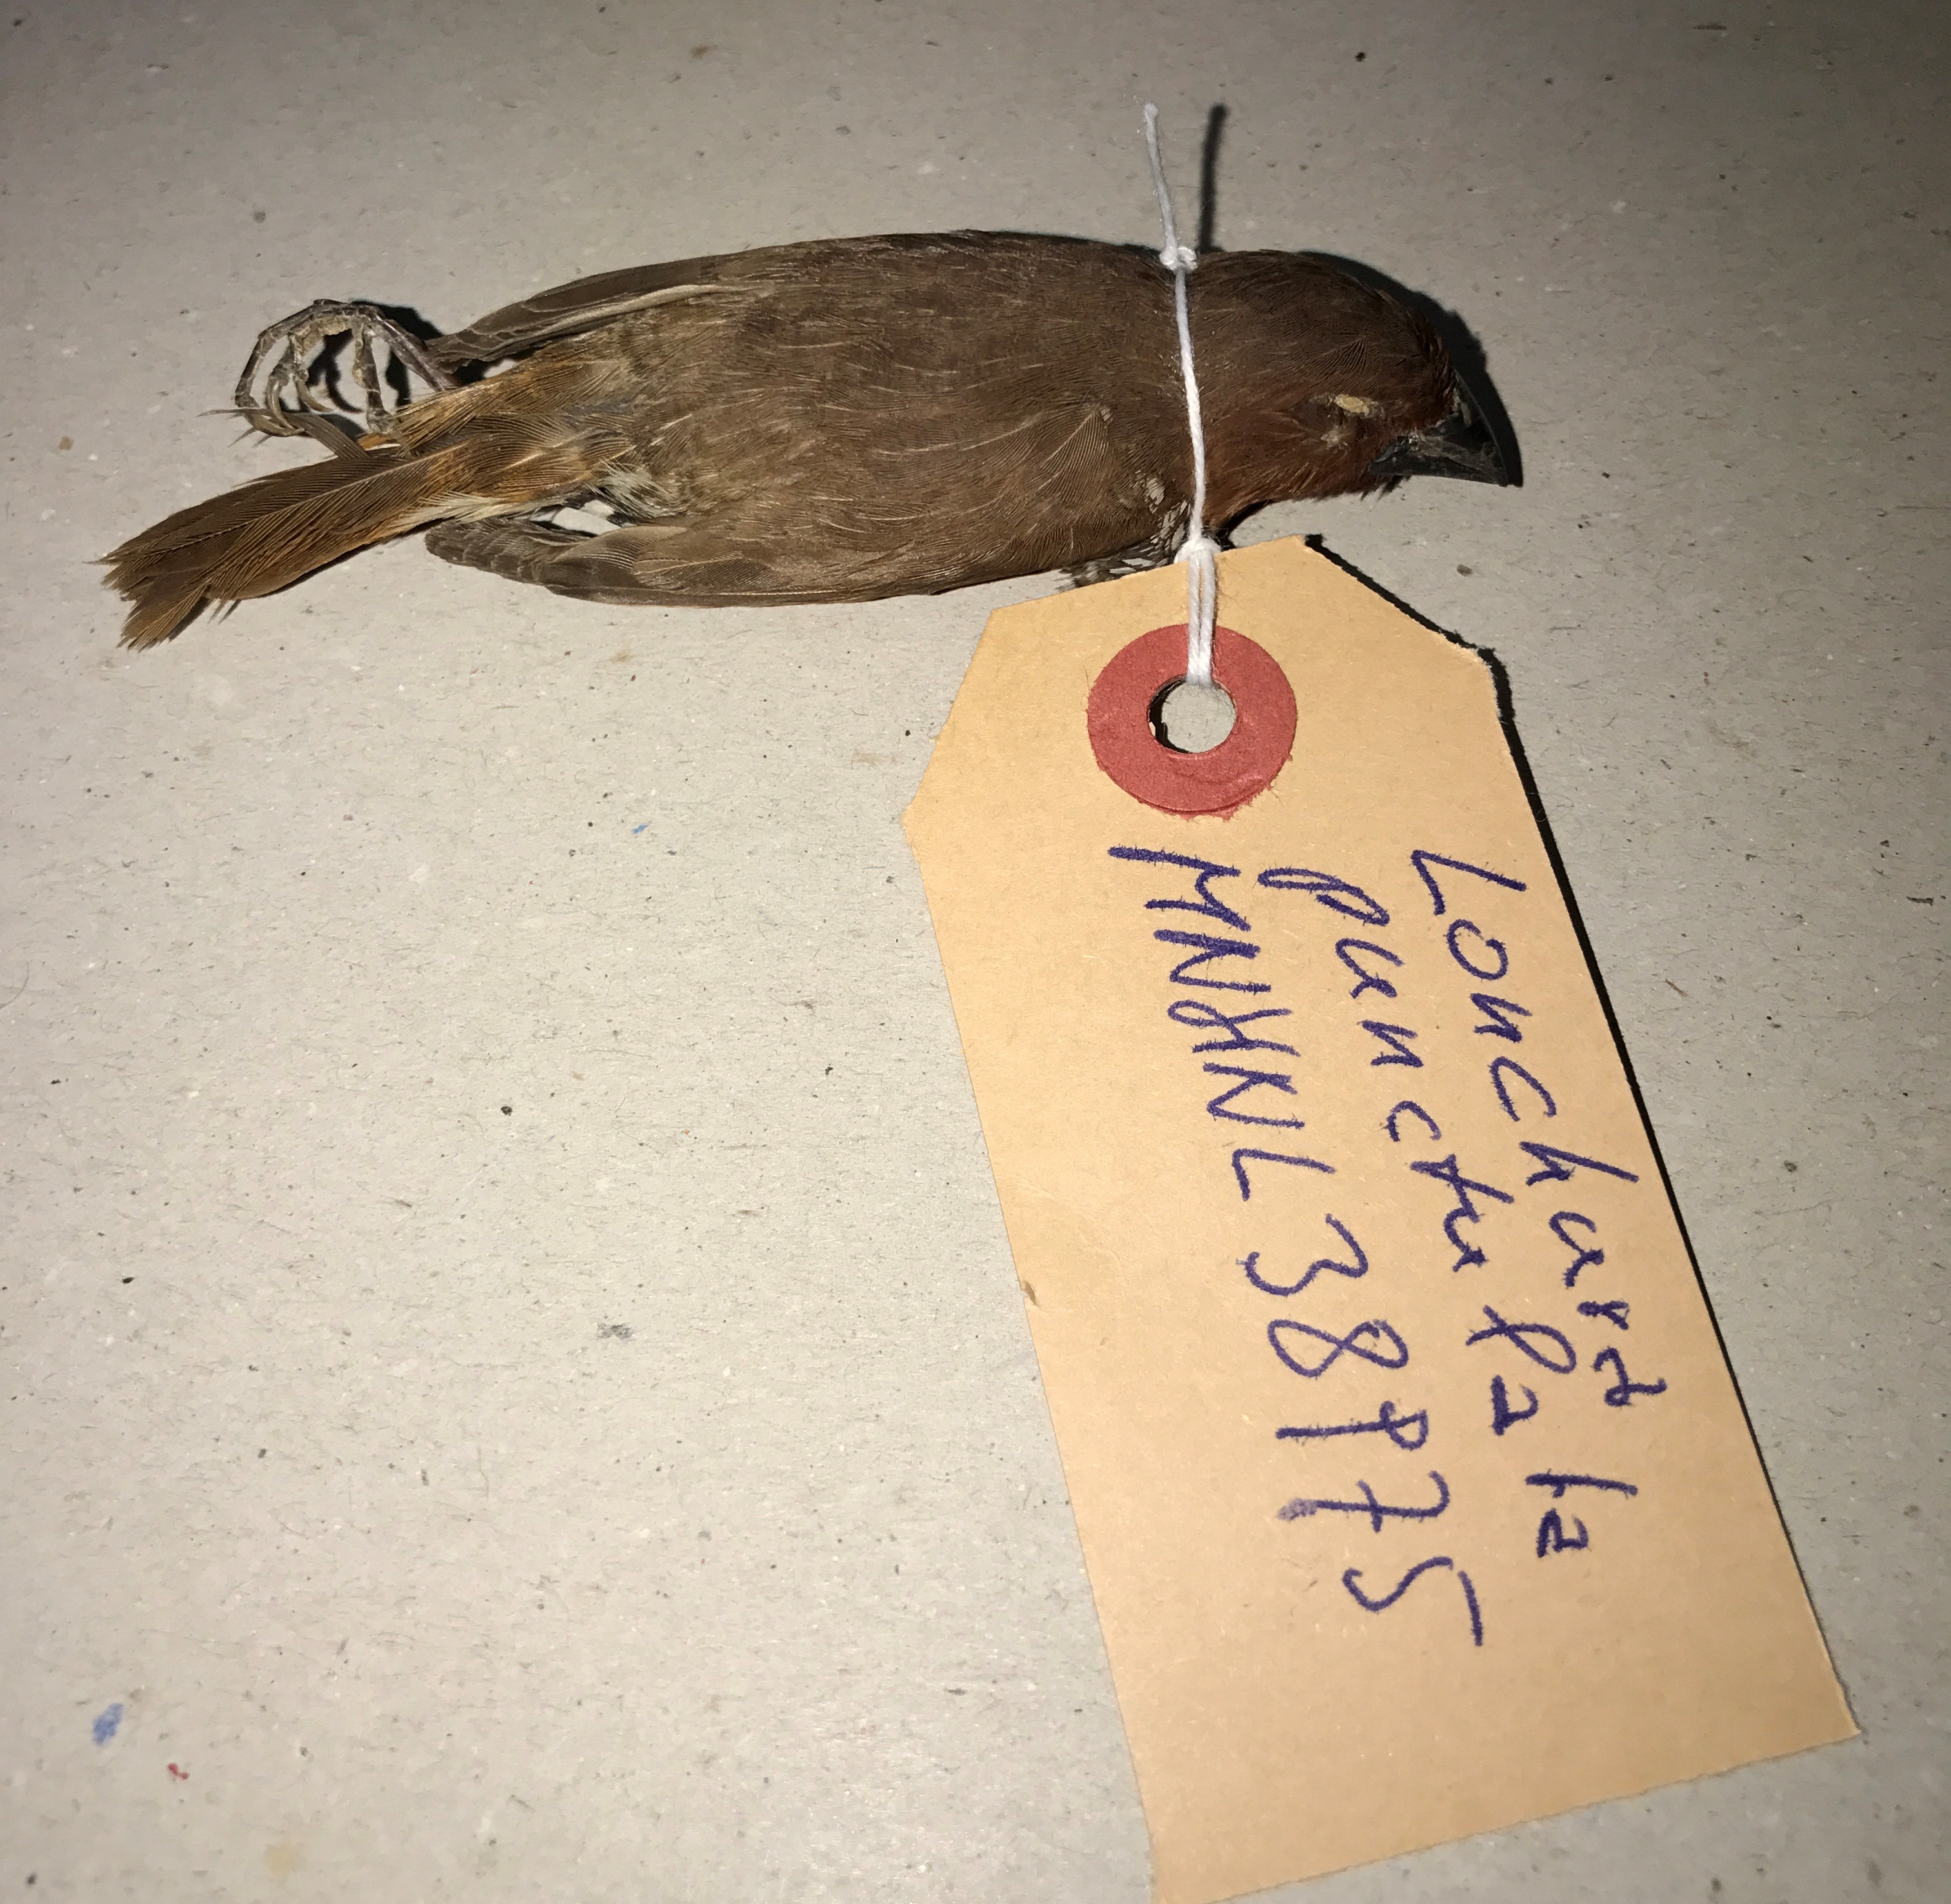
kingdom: Animalia
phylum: Chordata
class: Aves
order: Passeriformes
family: Estrildidae
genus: Lonchura
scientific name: Lonchura punctulata
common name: Scaly-breasted munia
